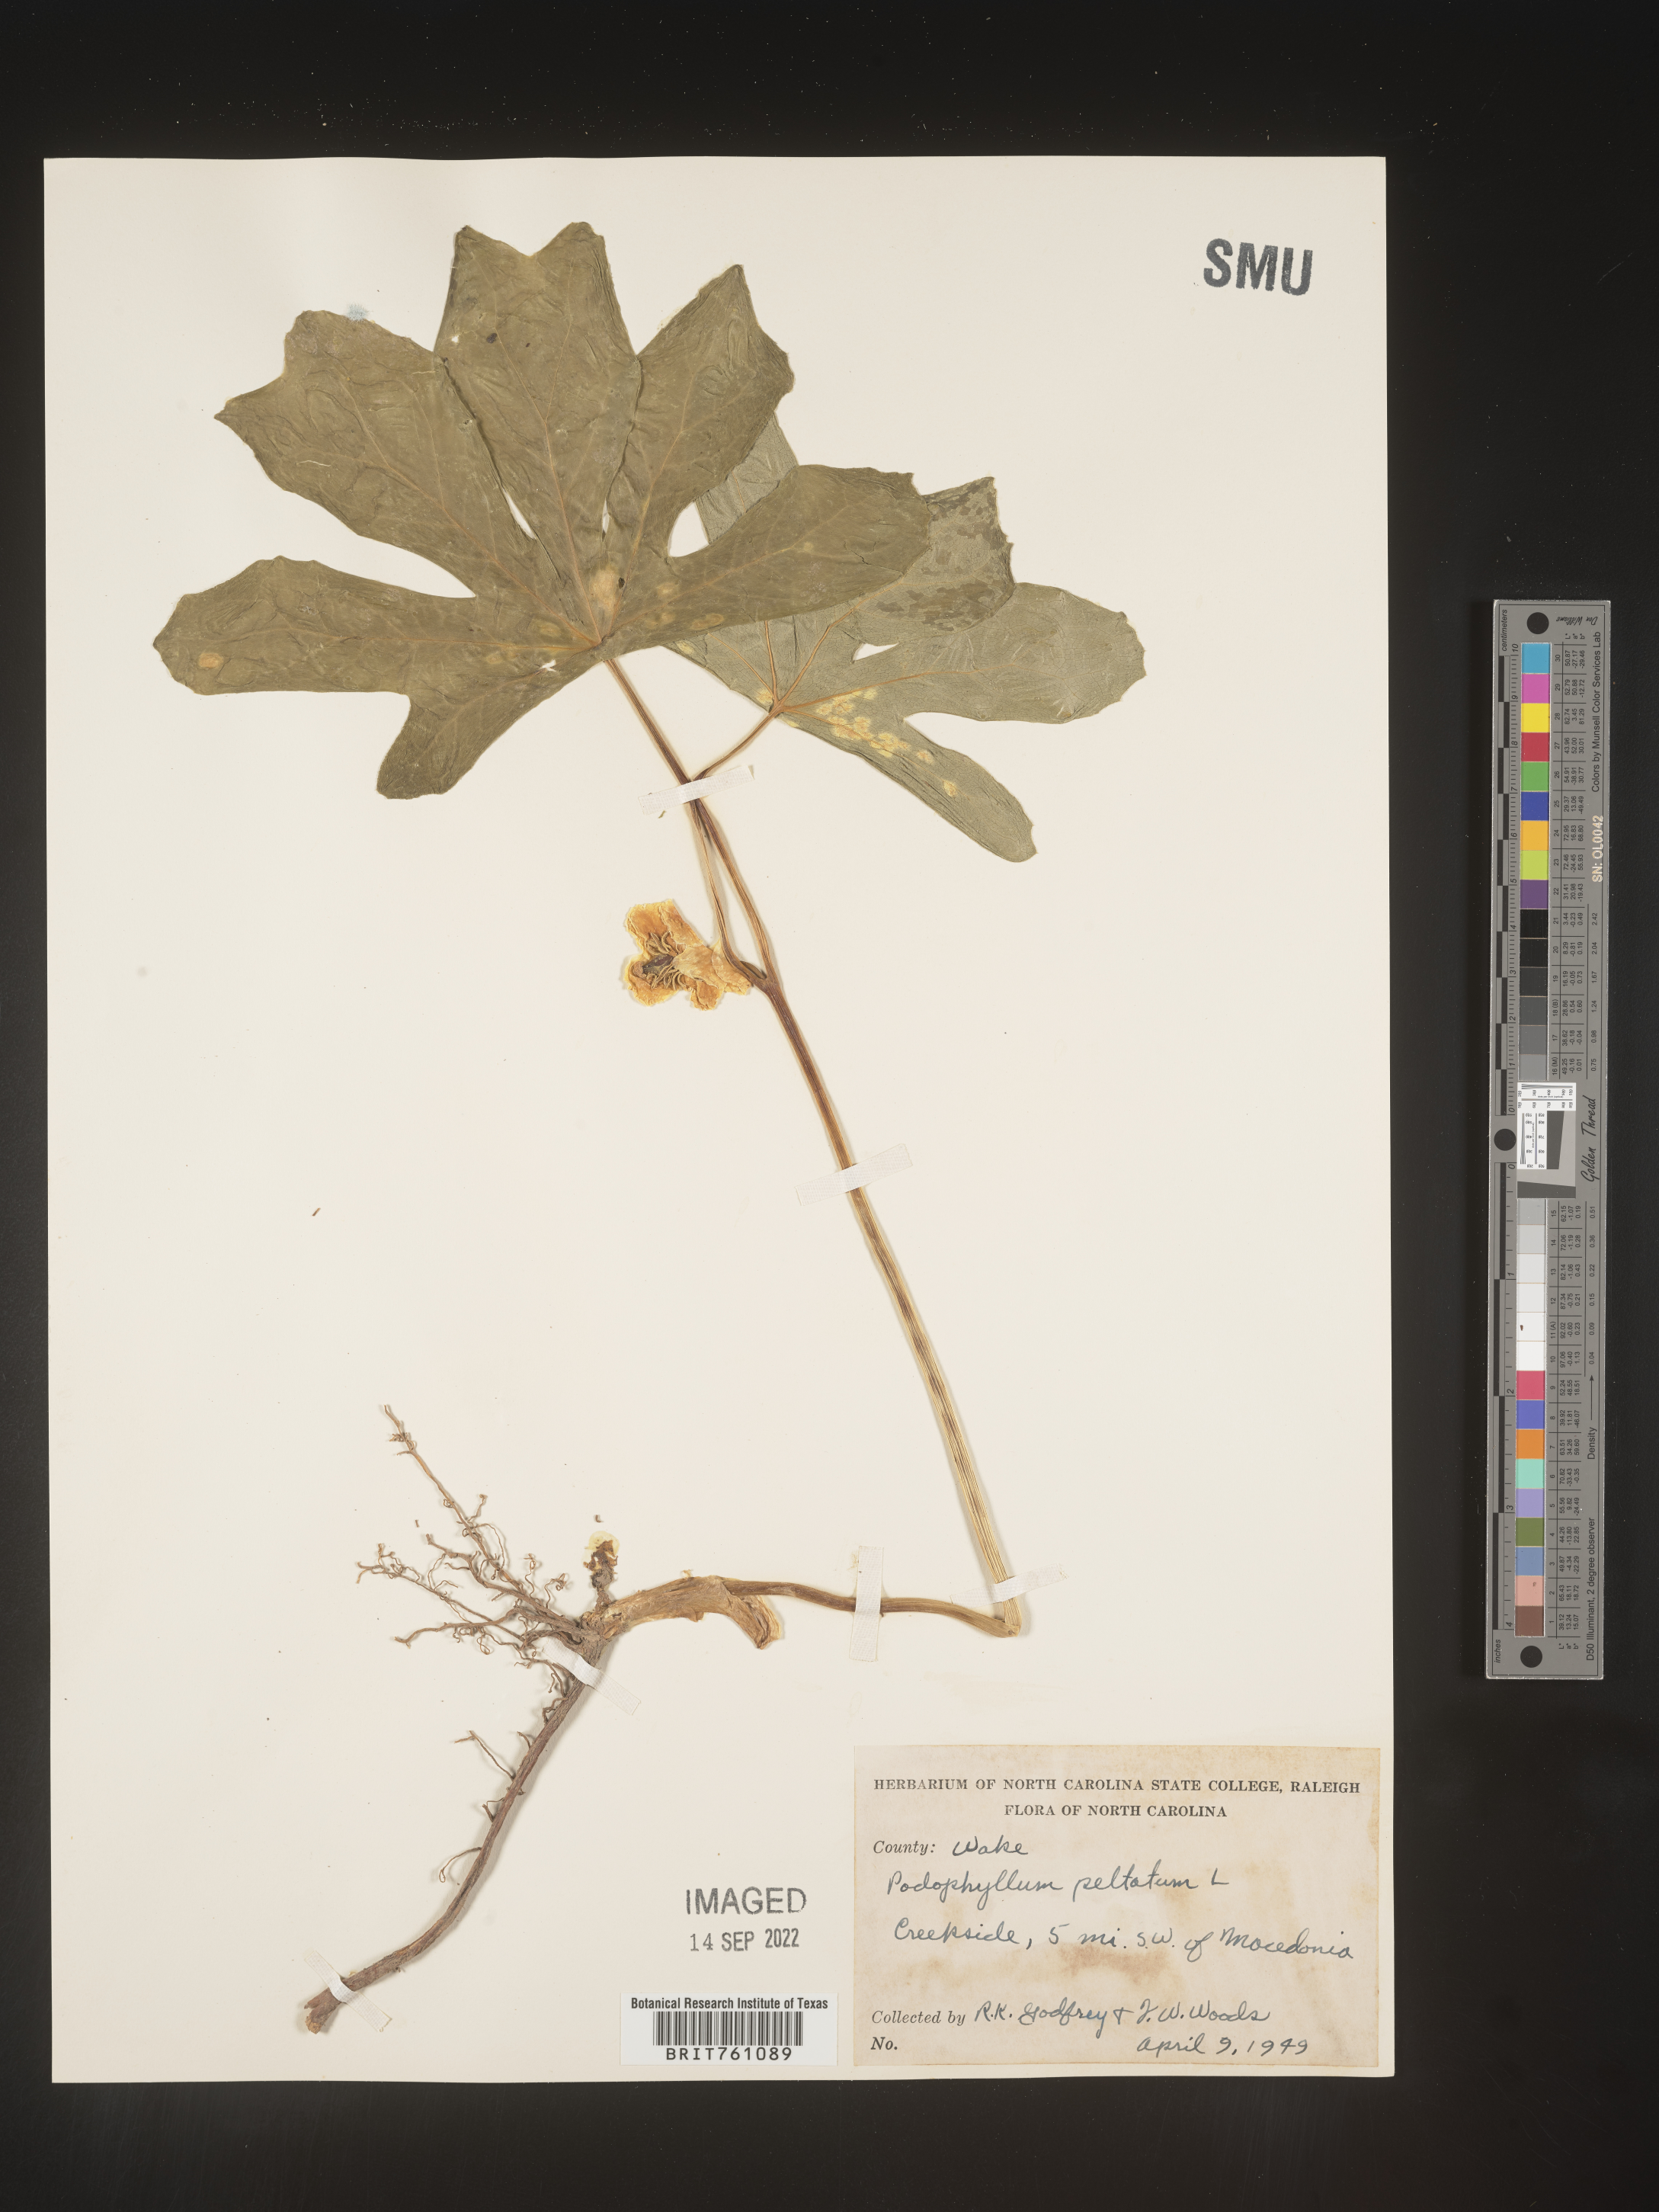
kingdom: Plantae
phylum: Tracheophyta
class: Magnoliopsida
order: Ranunculales
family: Berberidaceae
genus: Podophyllum
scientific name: Podophyllum peltatum
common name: Wild mandrake
